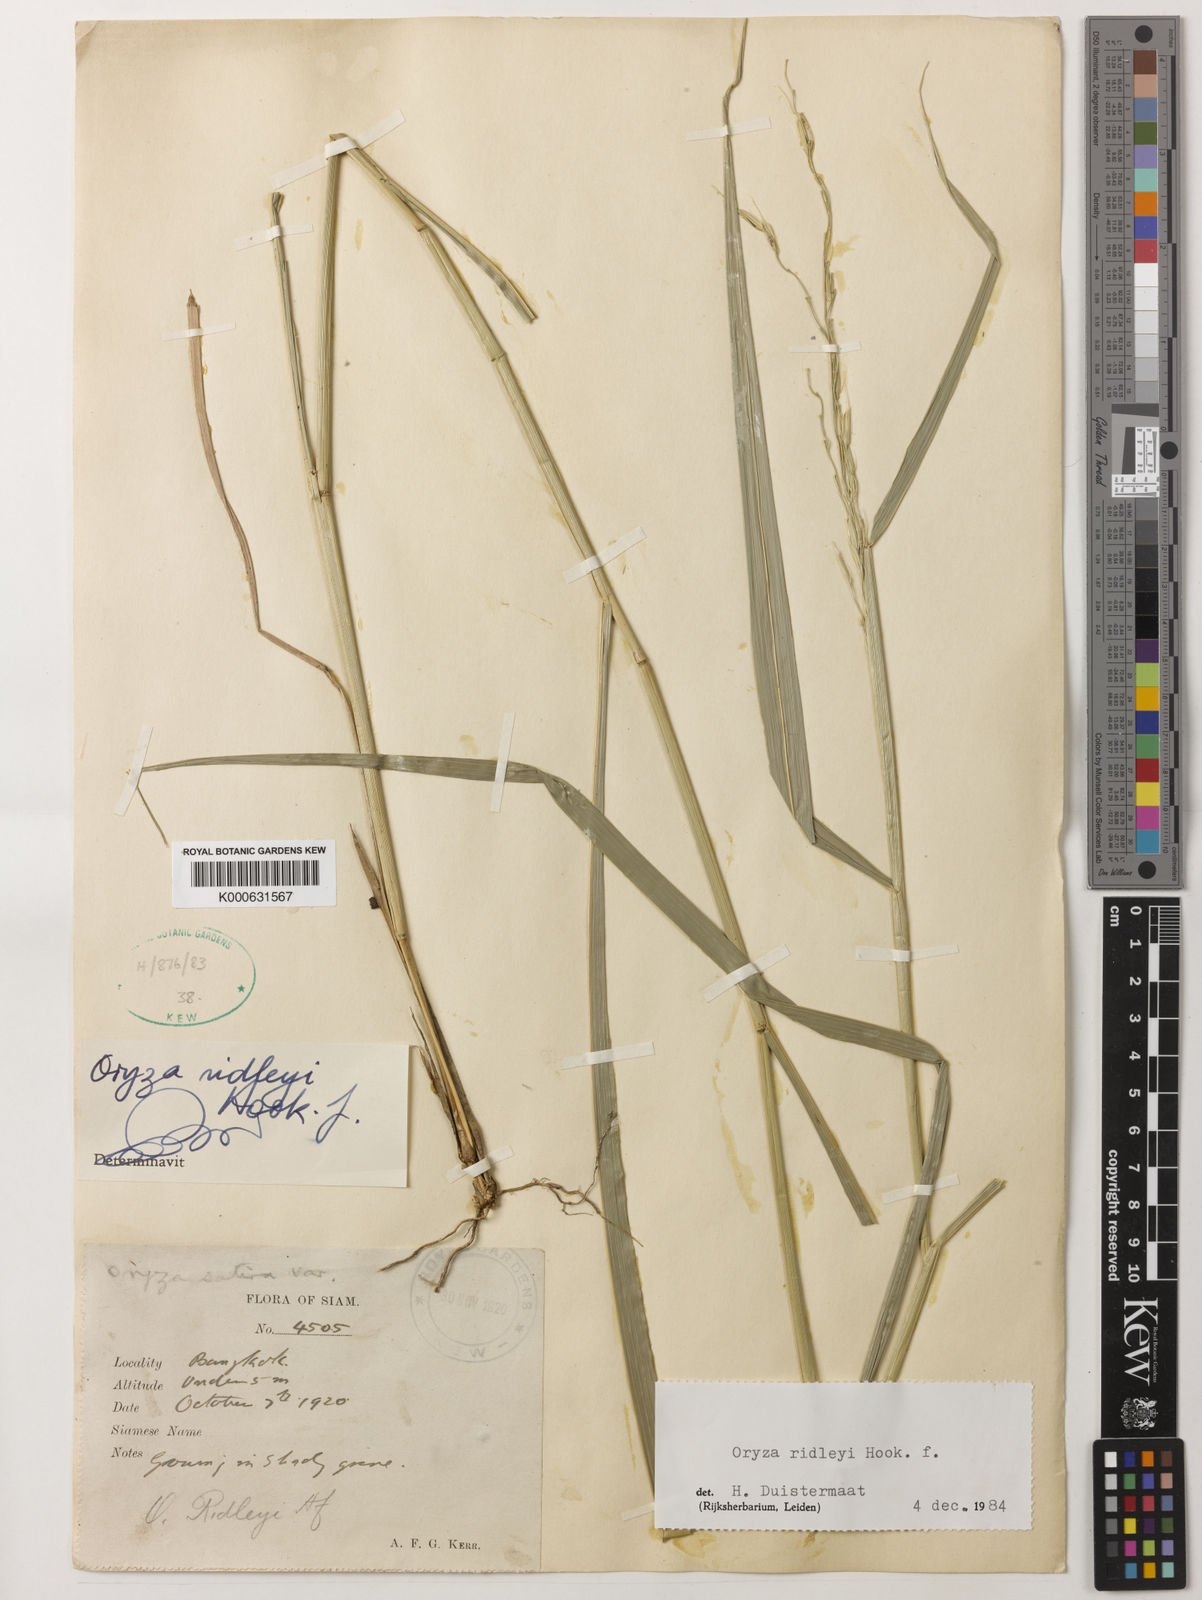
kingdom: Plantae
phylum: Tracheophyta
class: Liliopsida
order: Poales
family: Poaceae
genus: Oryza
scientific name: Oryza ridleyi
